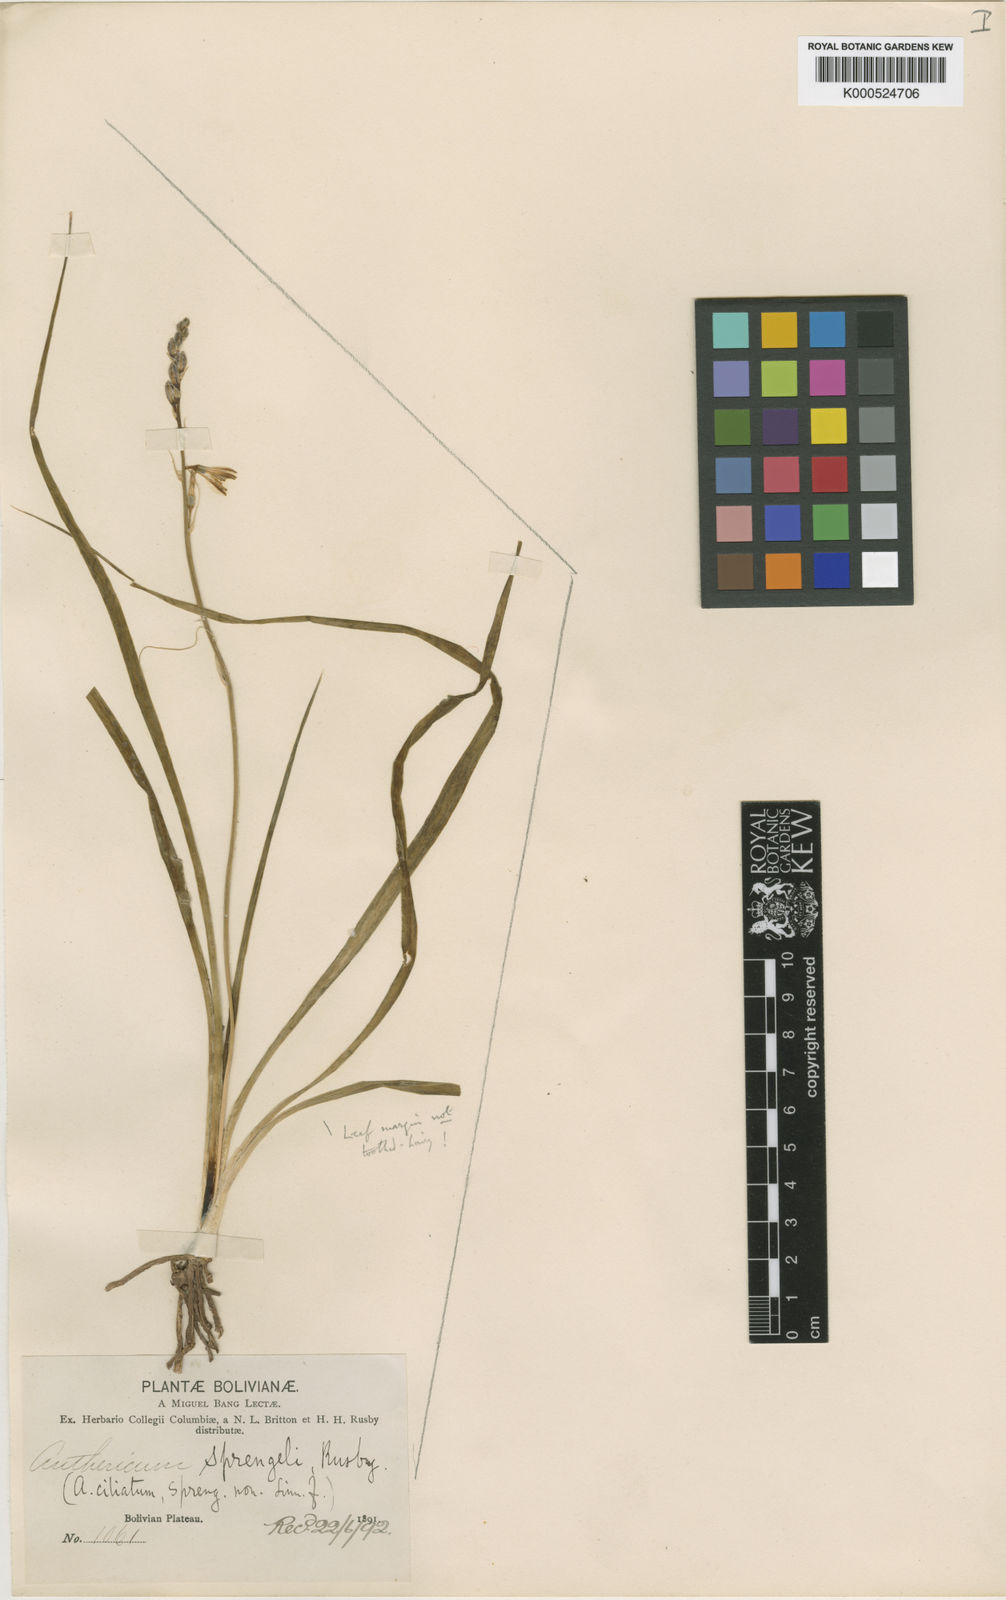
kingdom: Plantae
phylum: Tracheophyta
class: Liliopsida
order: Asparagales
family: Asparagaceae
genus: Echeandia
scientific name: Echeandia ciliata
